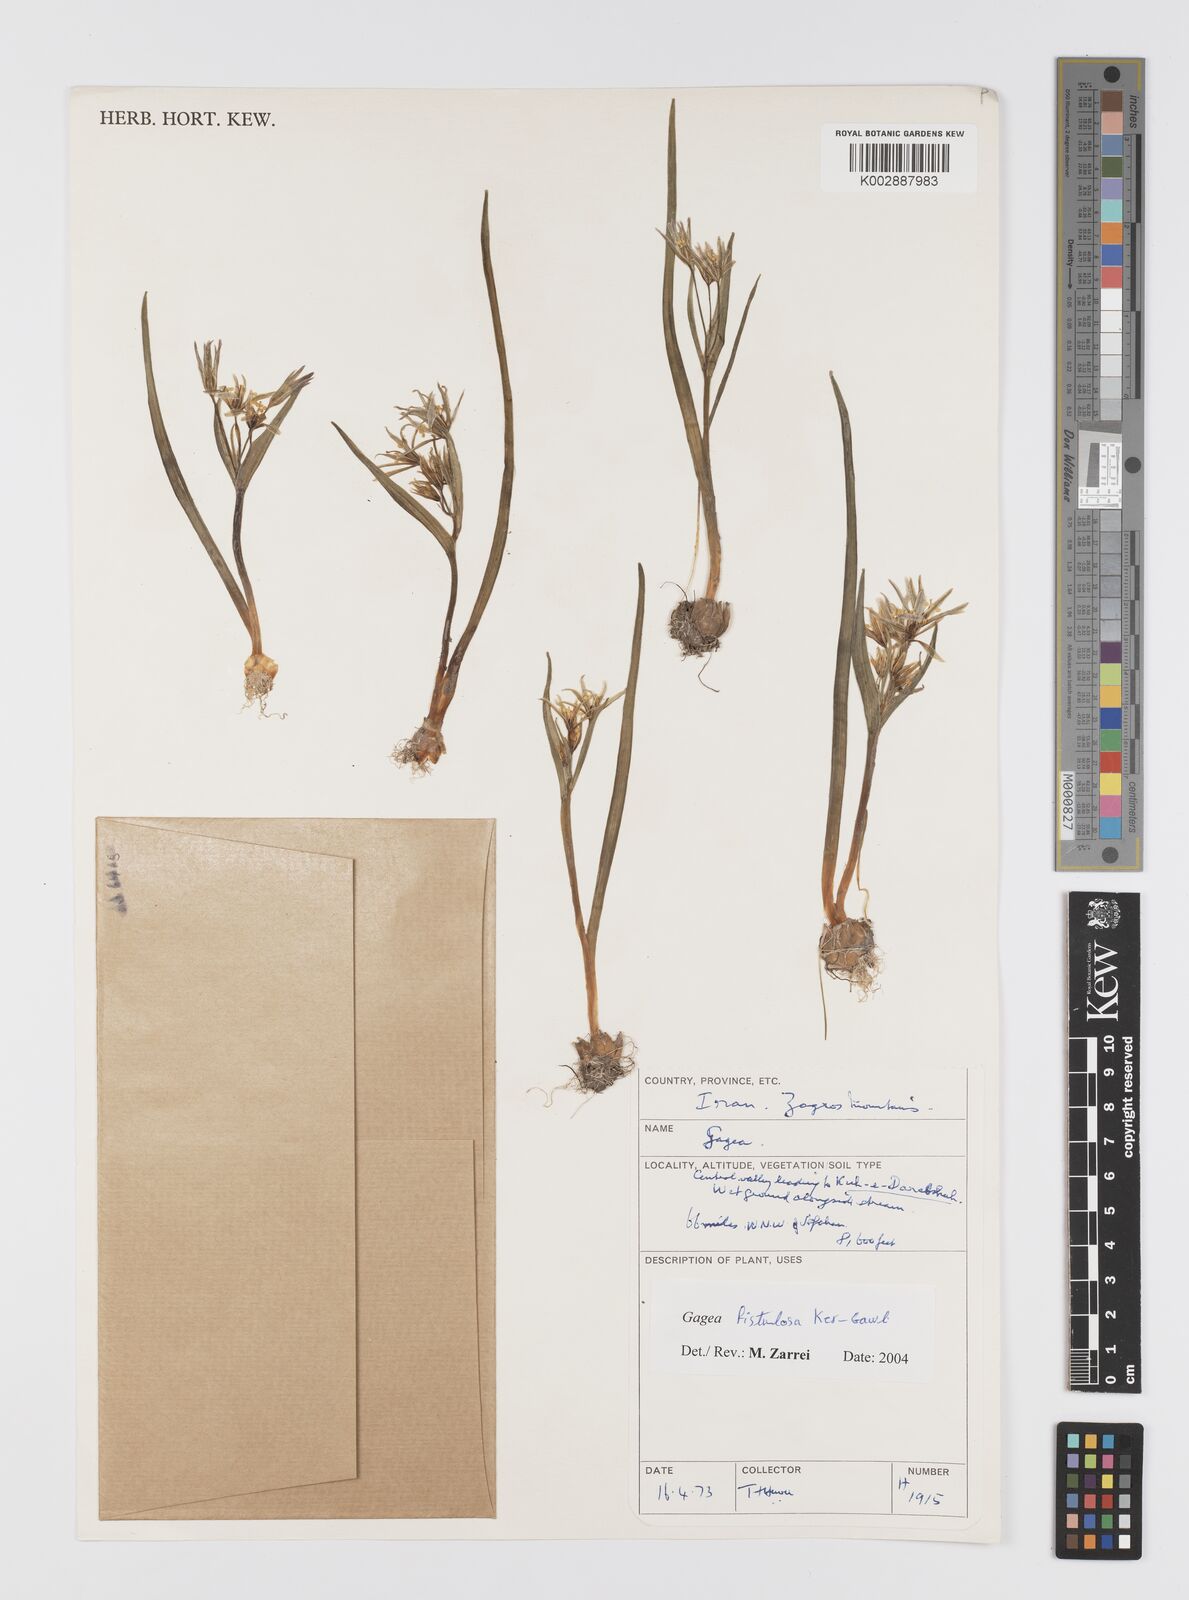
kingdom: Plantae
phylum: Tracheophyta
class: Liliopsida
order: Liliales
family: Liliaceae
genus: Gagea
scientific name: Gagea bohemica
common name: Early star-of-bethlehem
